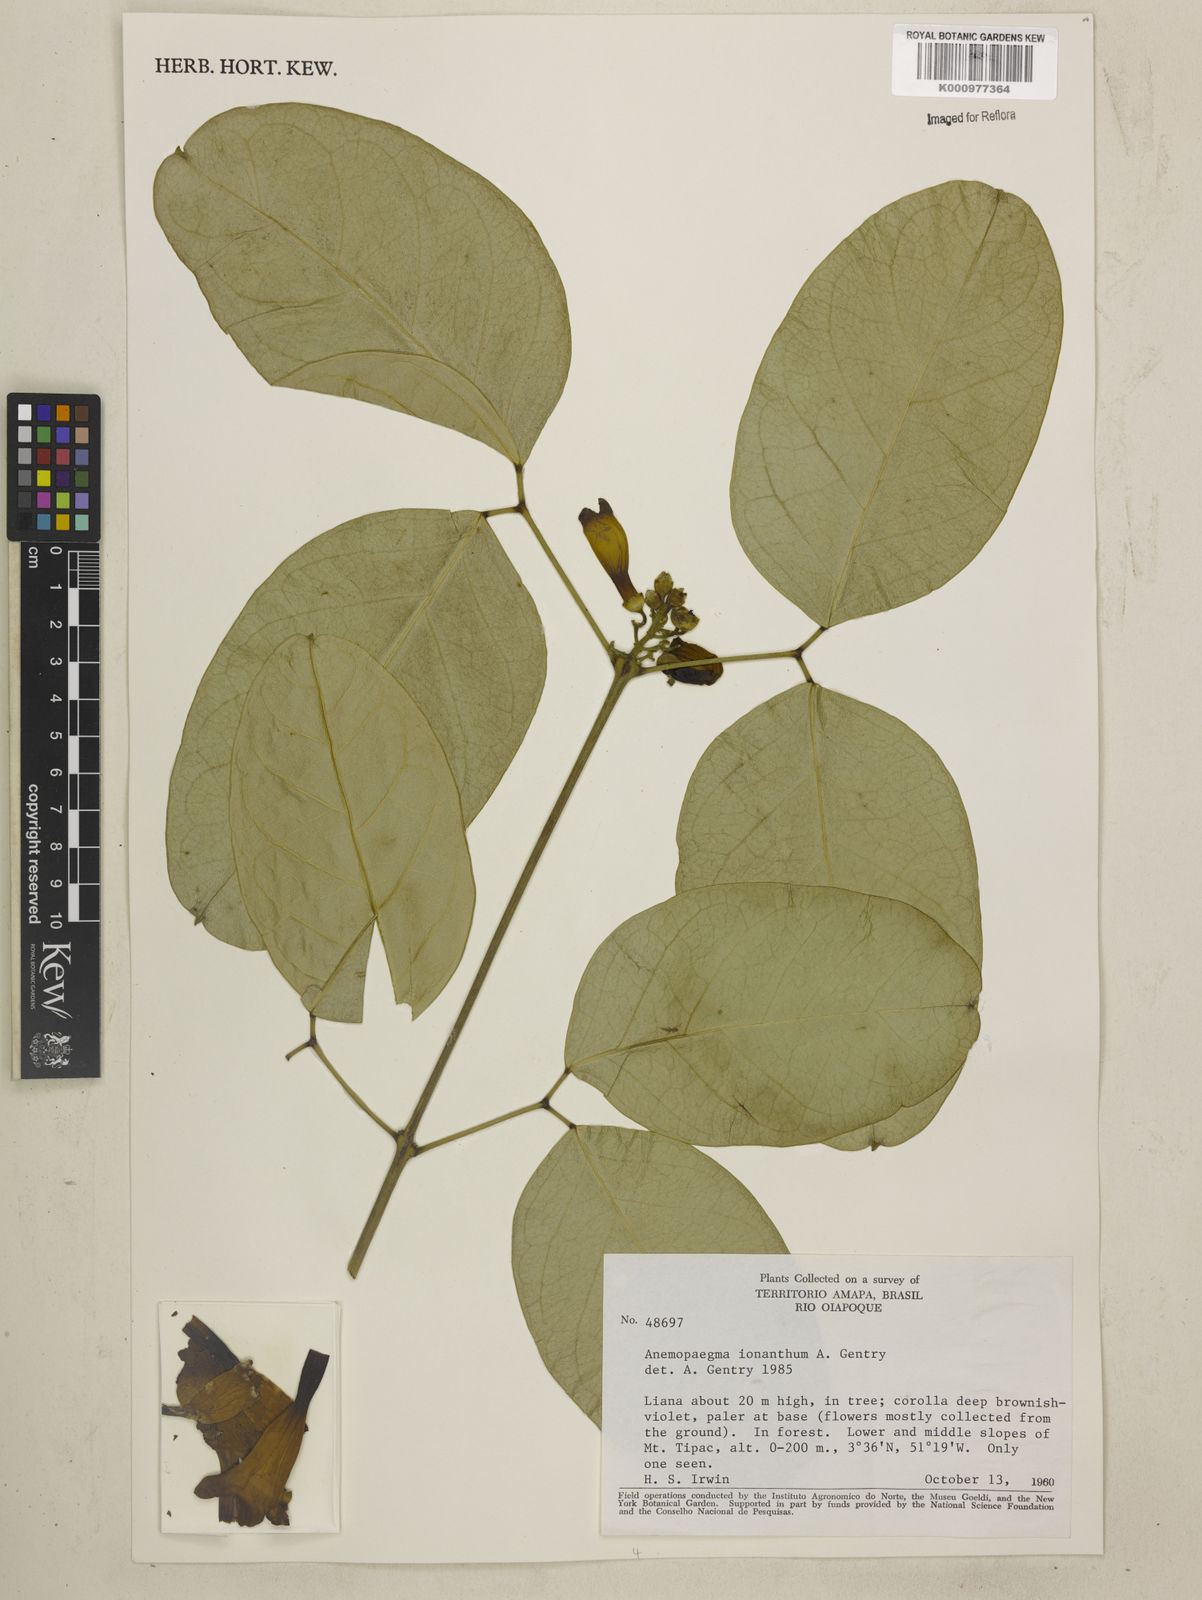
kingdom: Plantae
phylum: Tracheophyta
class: Magnoliopsida
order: Lamiales
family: Bignoniaceae
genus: Anemopaegma
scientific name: Anemopaegma ionanthum
